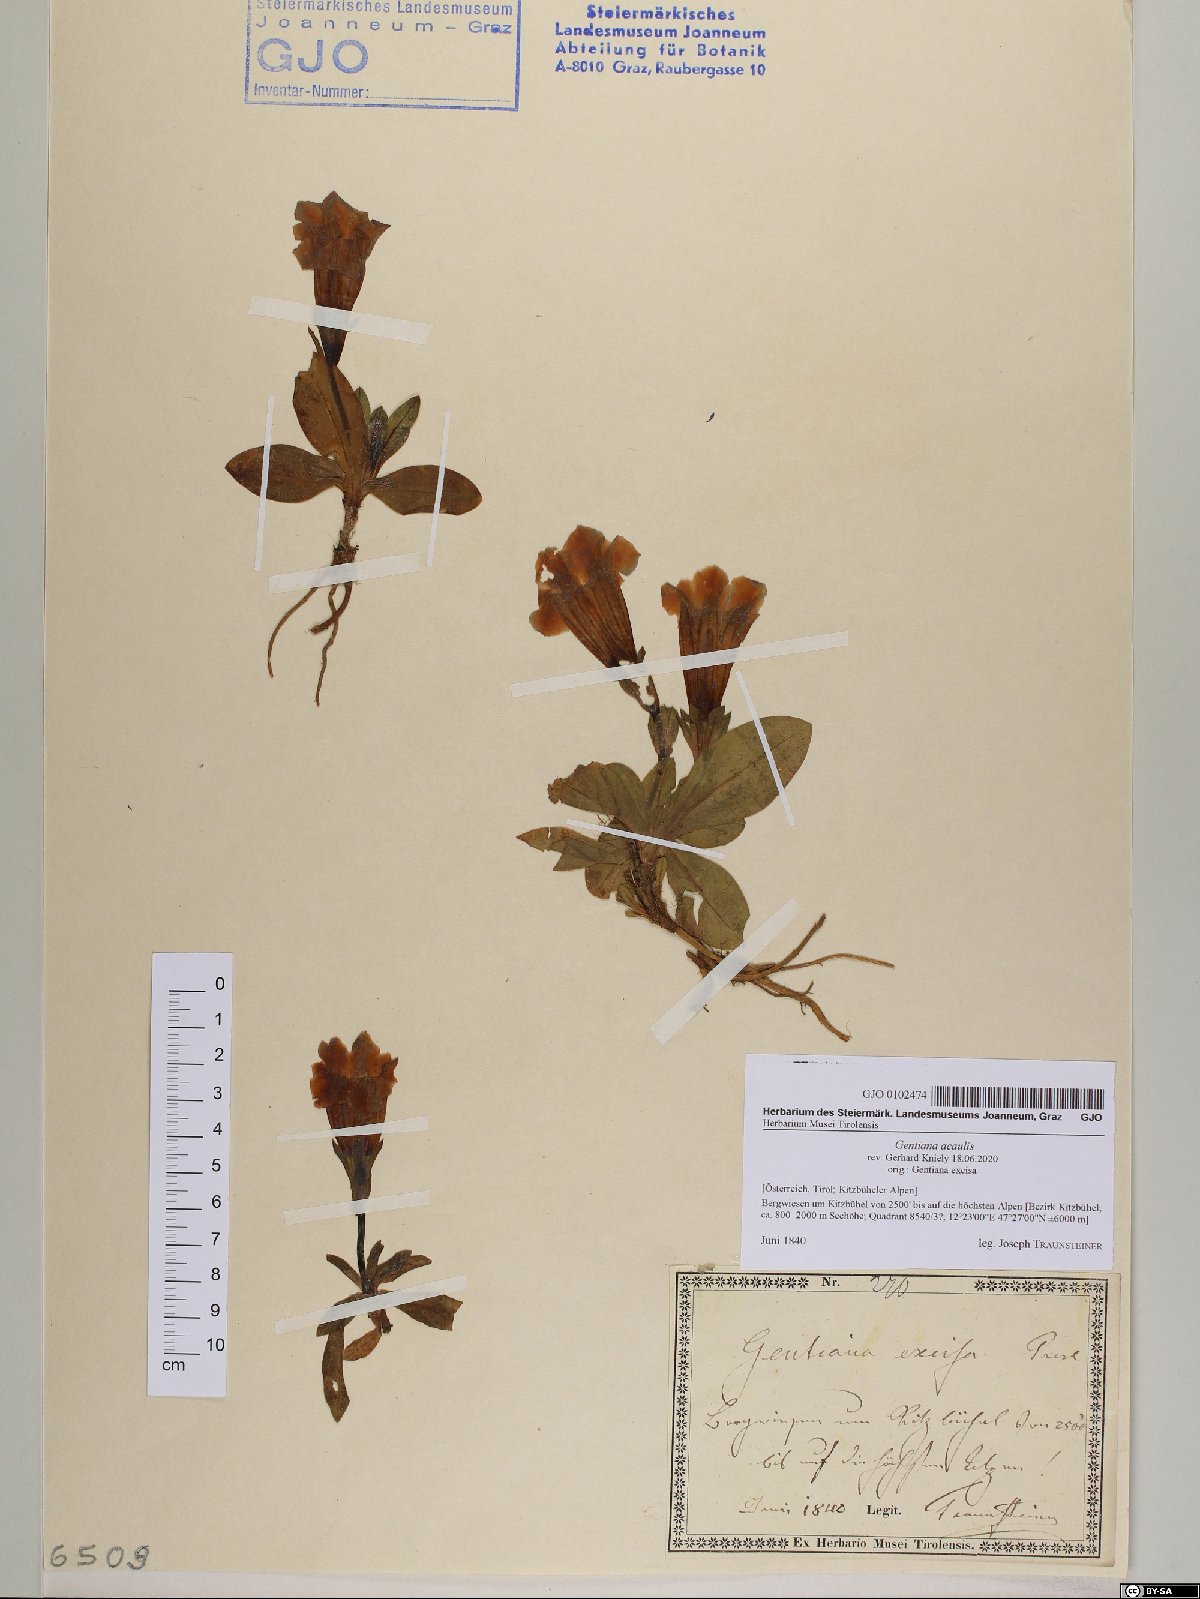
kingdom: Plantae
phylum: Tracheophyta
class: Magnoliopsida
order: Gentianales
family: Gentianaceae
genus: Gentiana
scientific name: Gentiana acaulis
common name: Trumpet gentian
